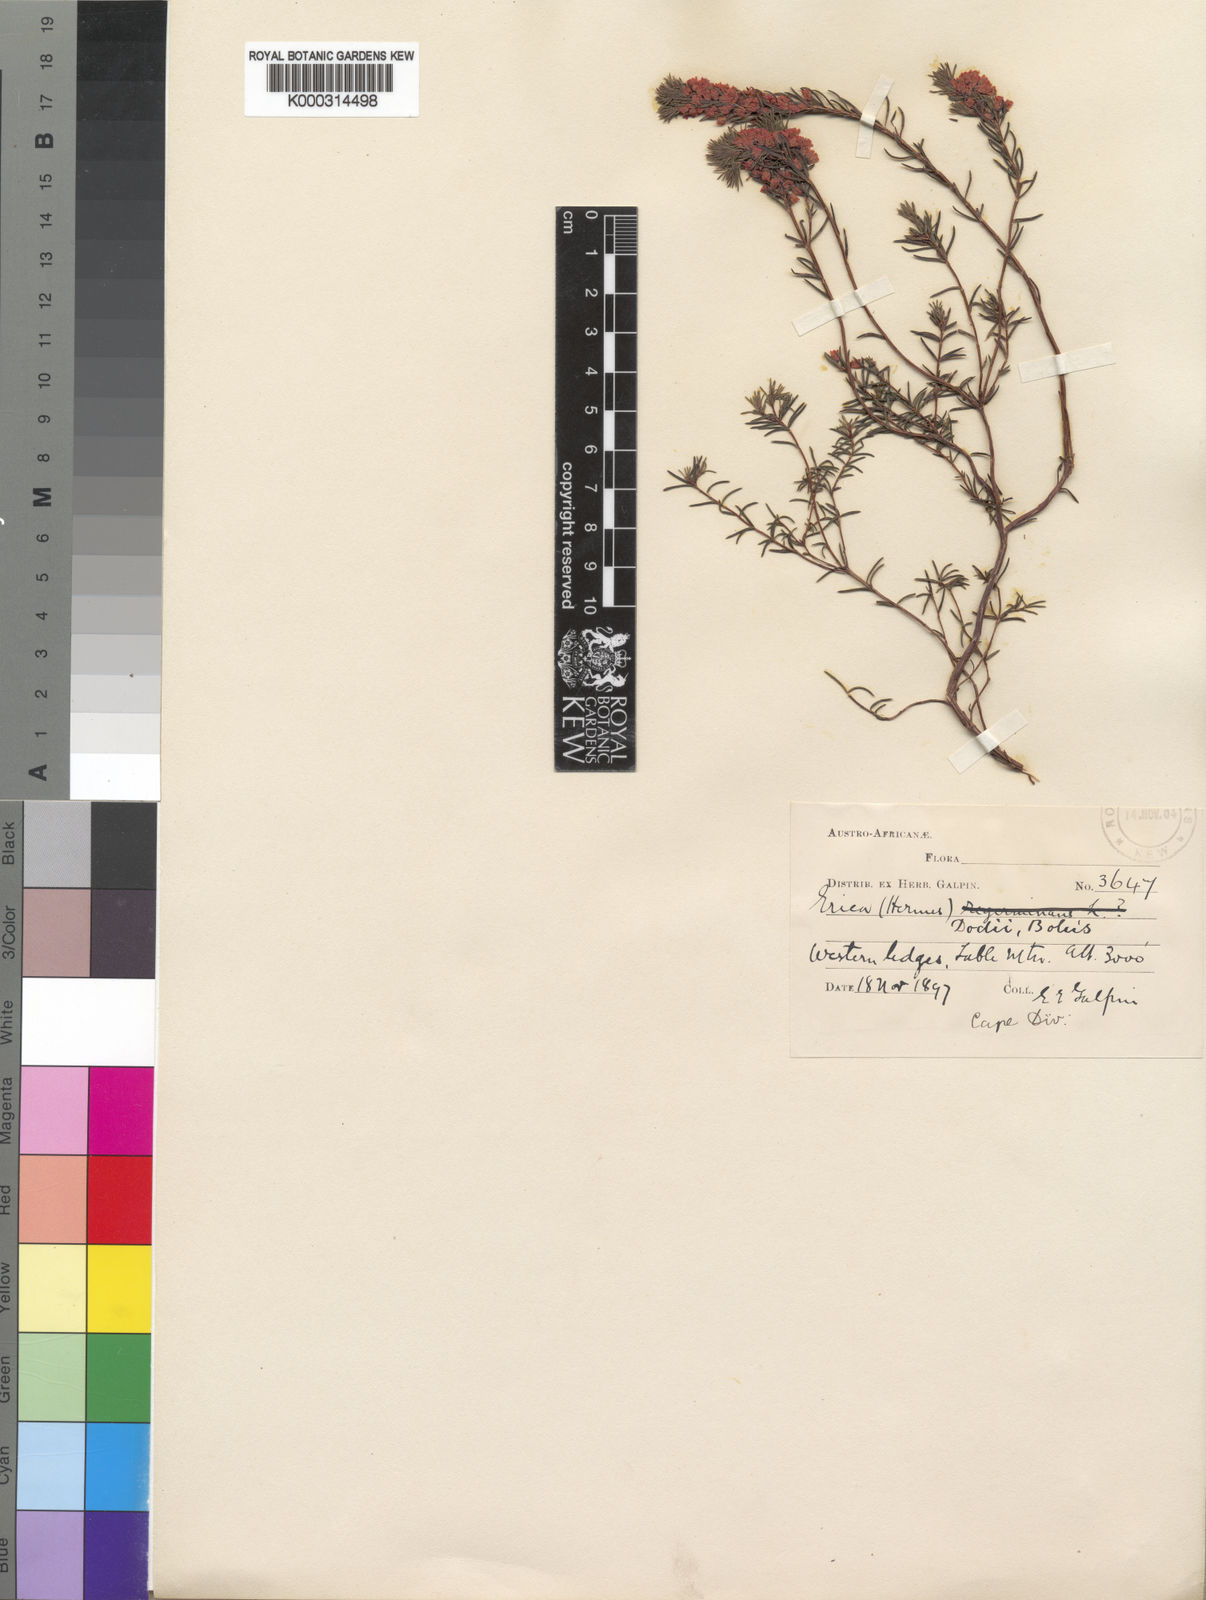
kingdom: Plantae
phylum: Tracheophyta
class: Magnoliopsida
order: Ericales
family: Ericaceae
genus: Erica
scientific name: Erica dodii
